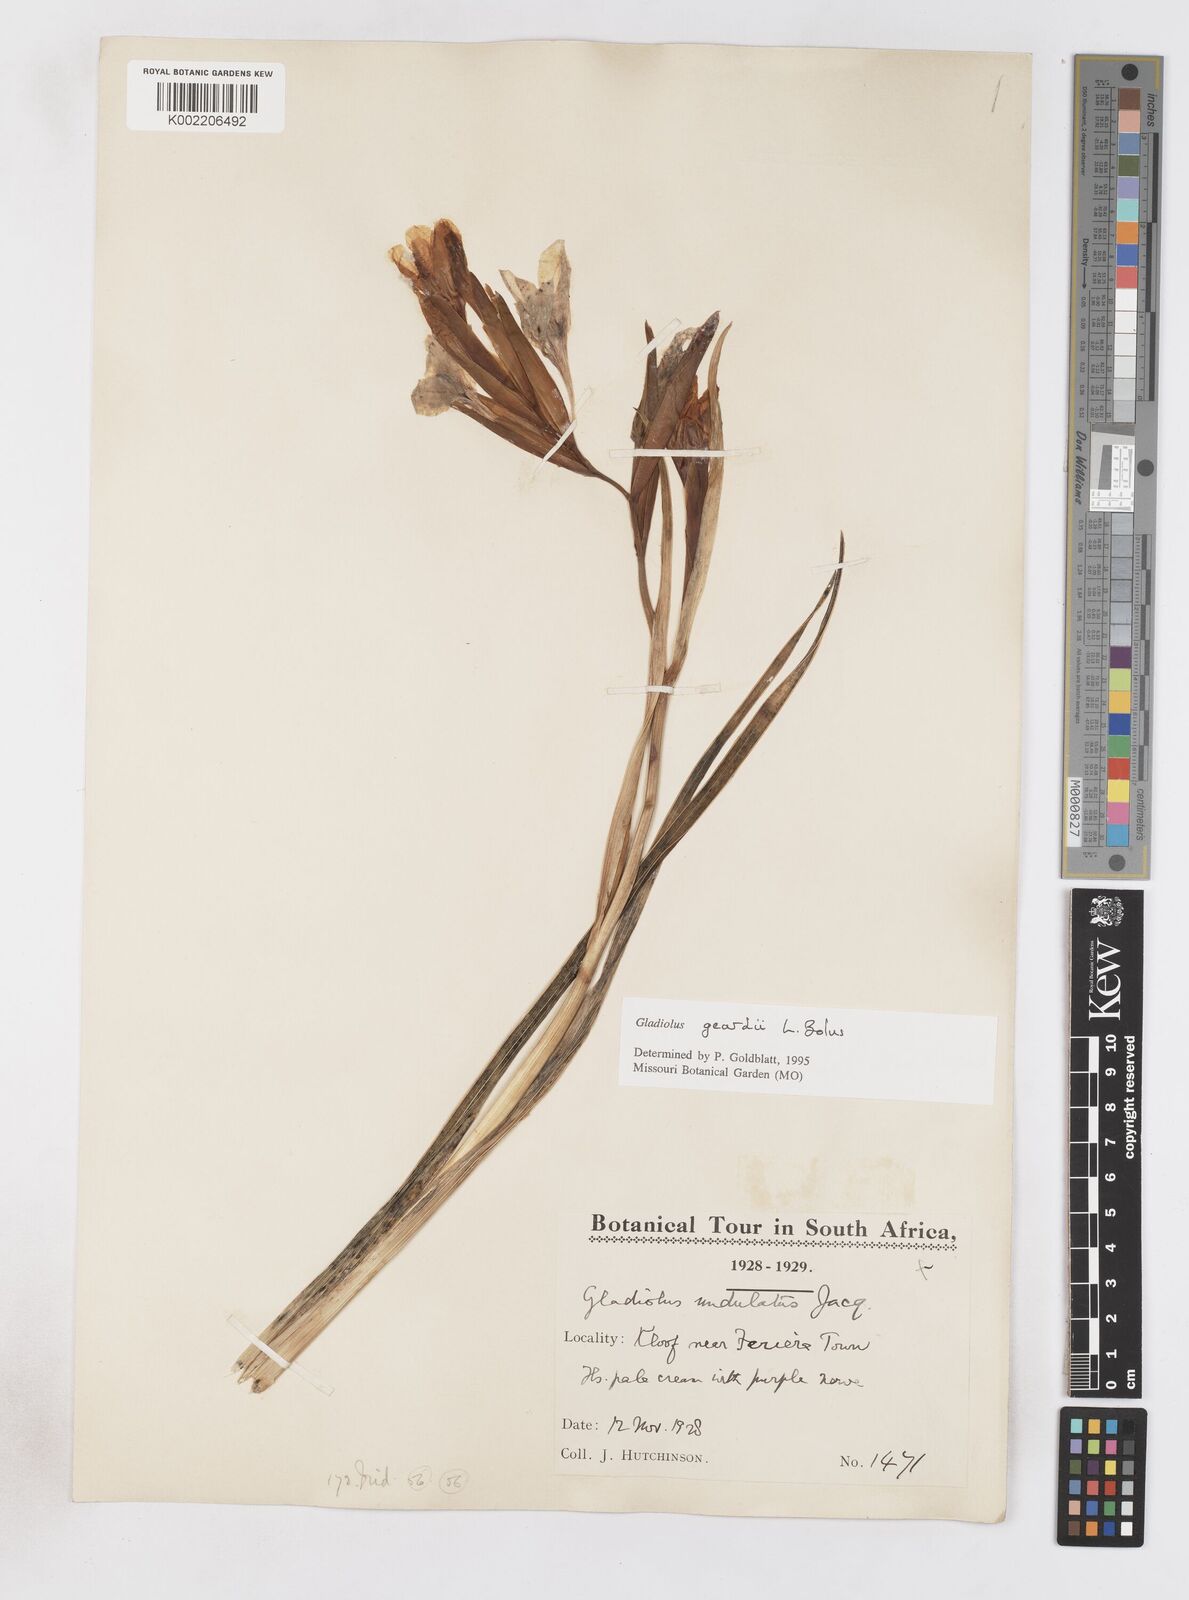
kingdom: Plantae
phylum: Tracheophyta
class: Liliopsida
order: Asparagales
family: Iridaceae
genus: Gladiolus
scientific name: Gladiolus geardii
